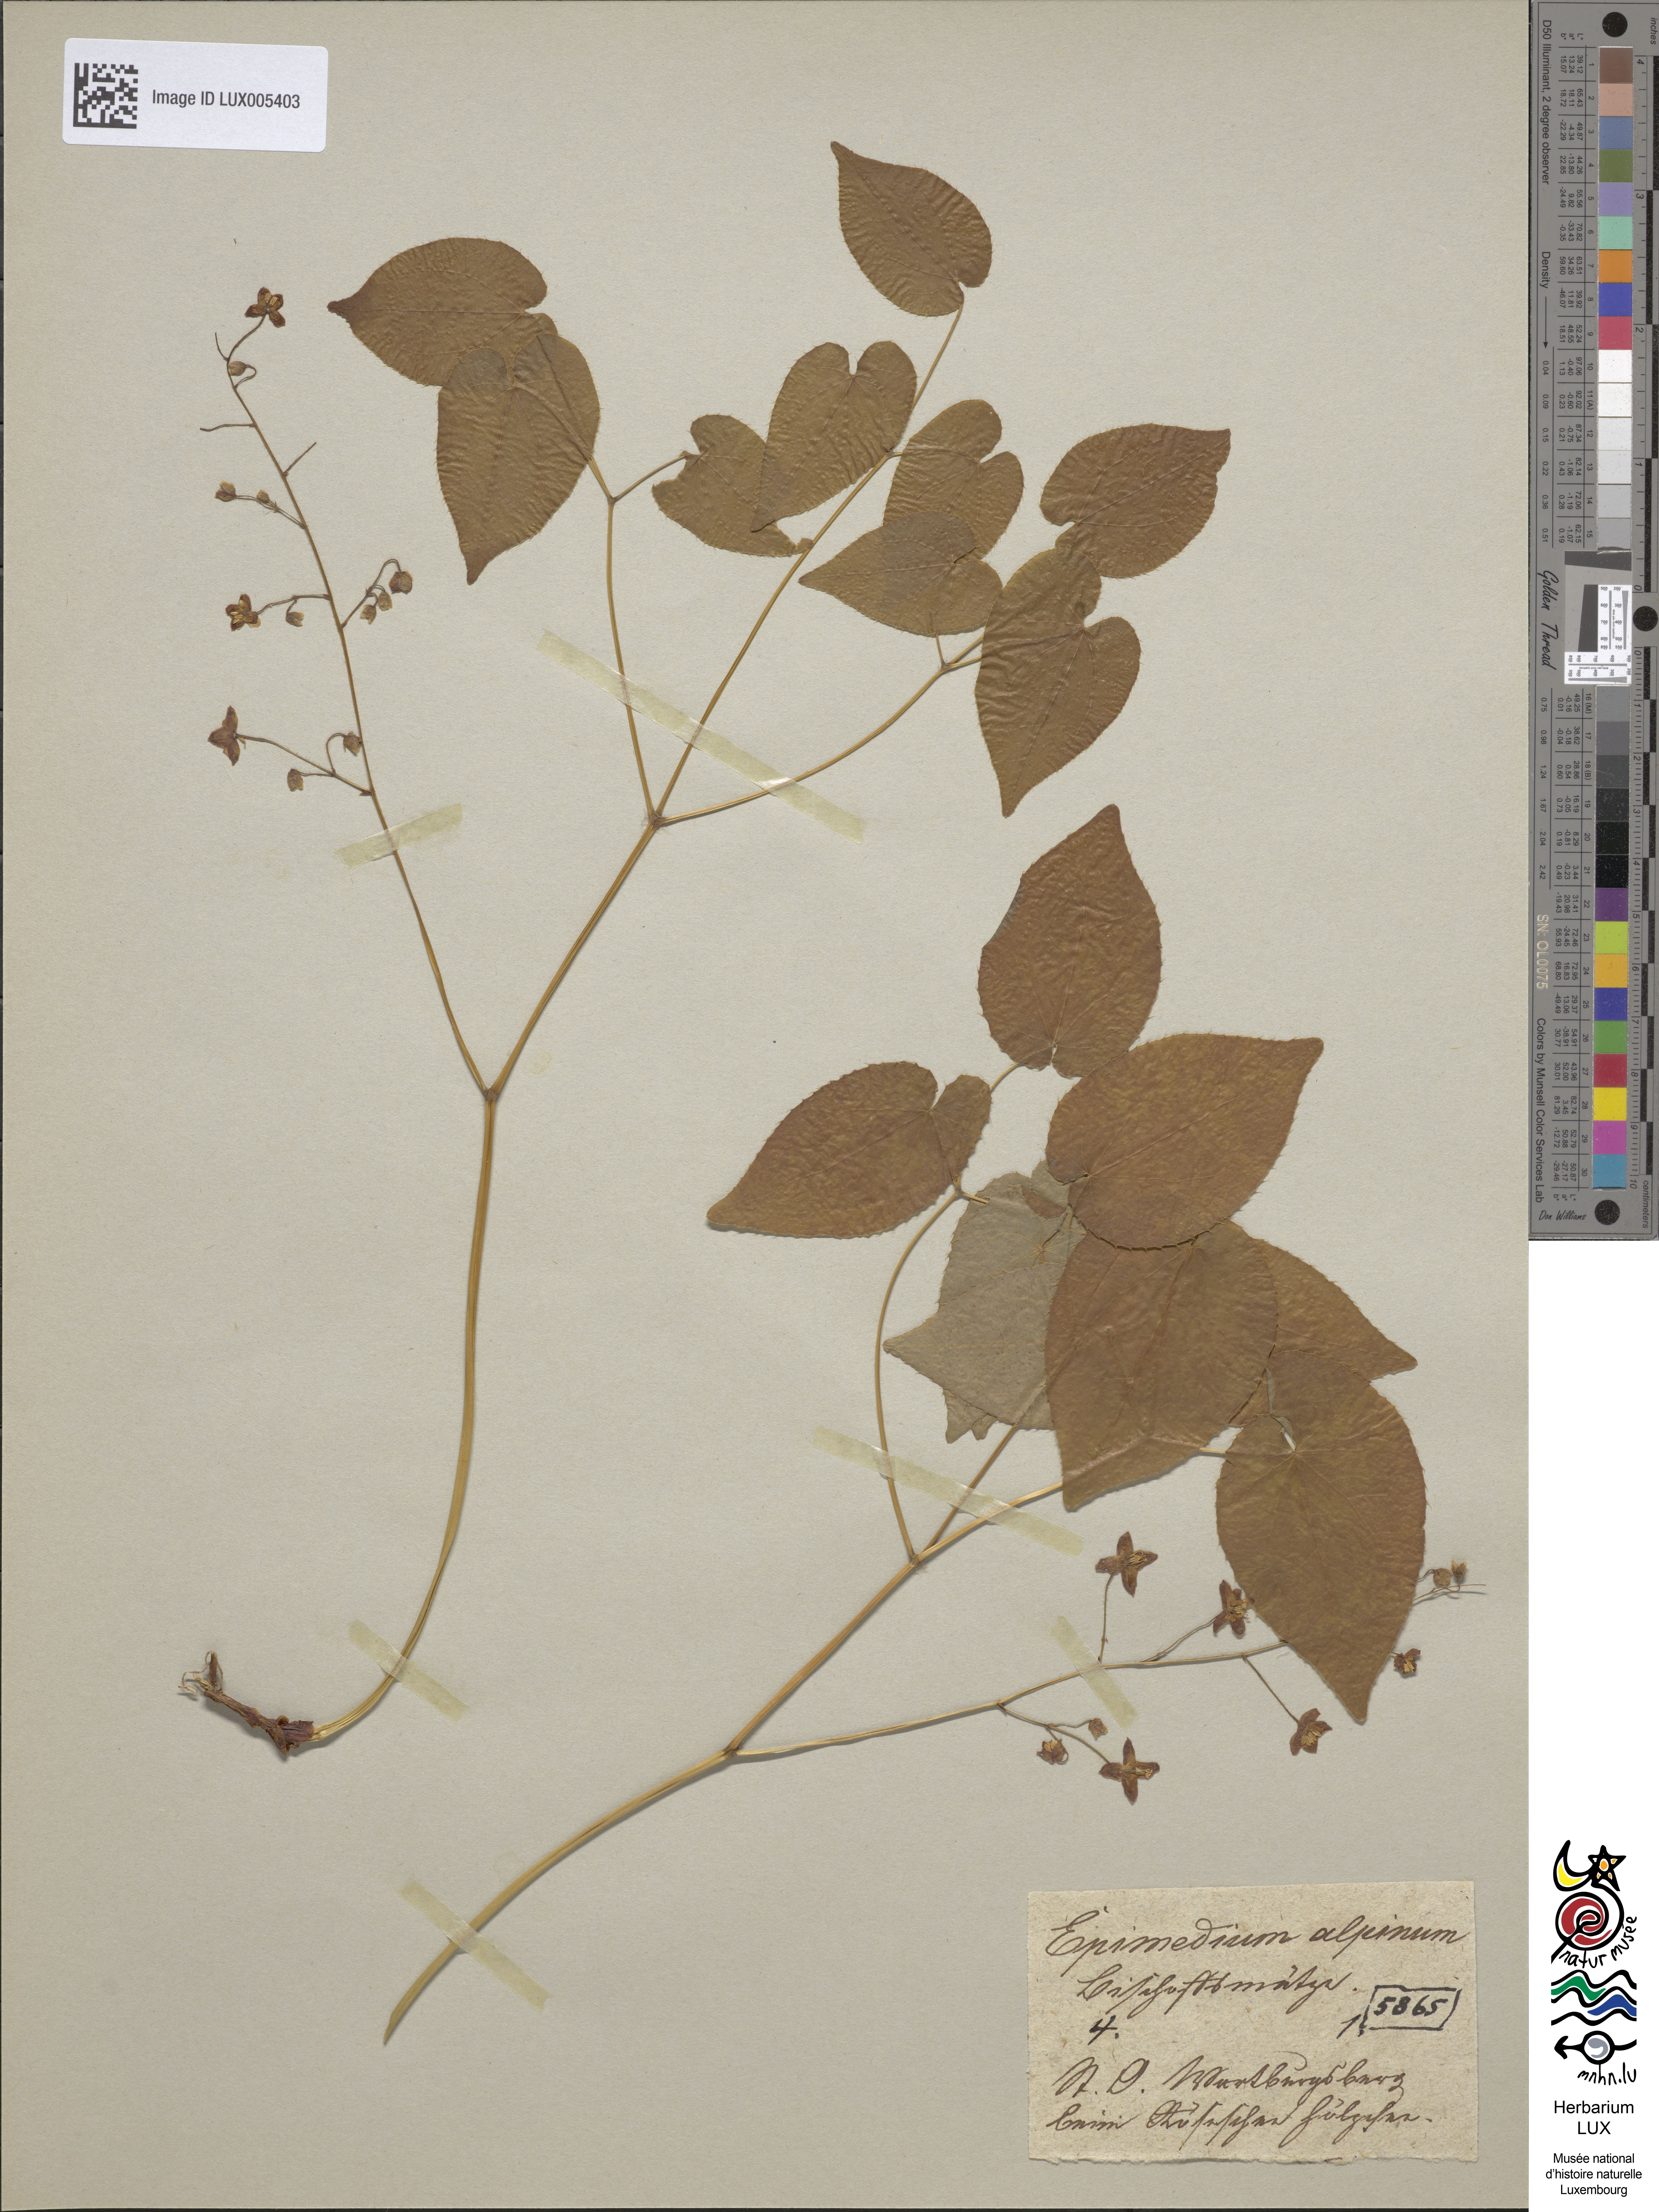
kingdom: Plantae
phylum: Tracheophyta
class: Magnoliopsida
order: Ranunculales
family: Berberidaceae
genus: Epimedium
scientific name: Epimedium alpinum
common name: Barrenwort
